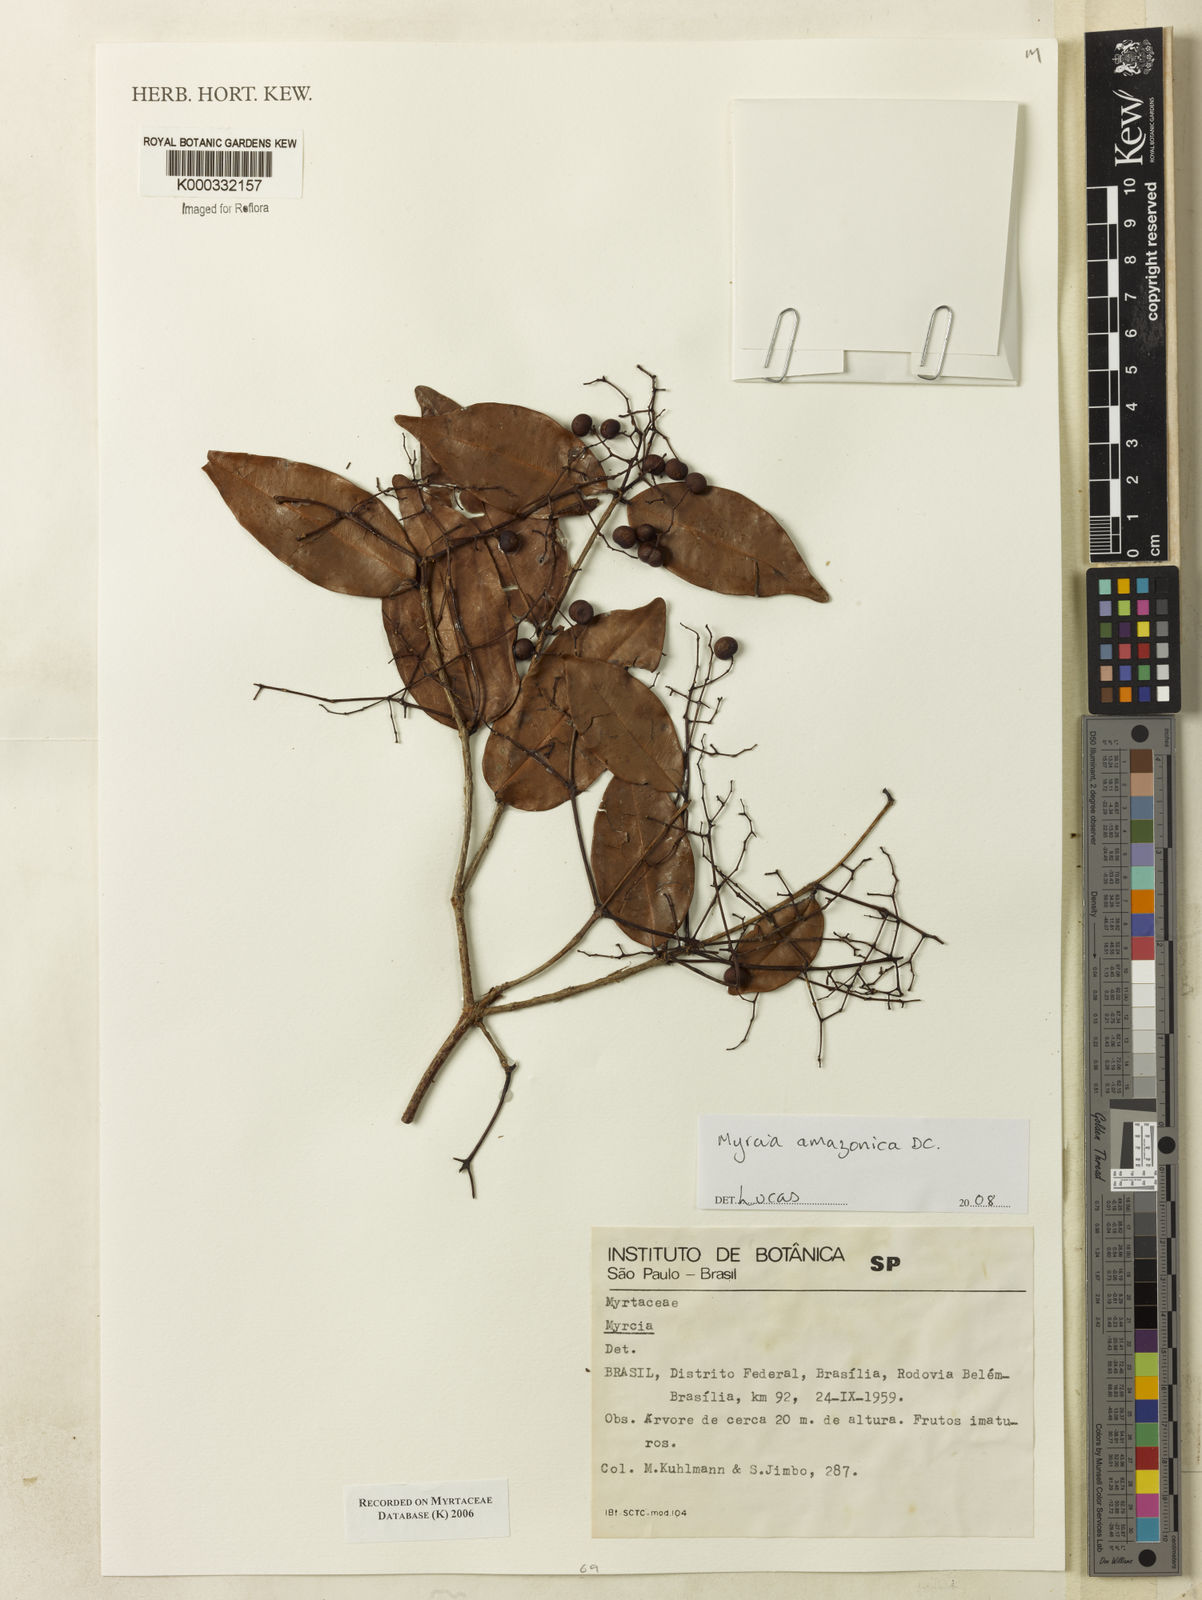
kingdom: Plantae
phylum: Tracheophyta
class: Magnoliopsida
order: Myrtales
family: Myrtaceae
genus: Myrcia
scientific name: Myrcia
